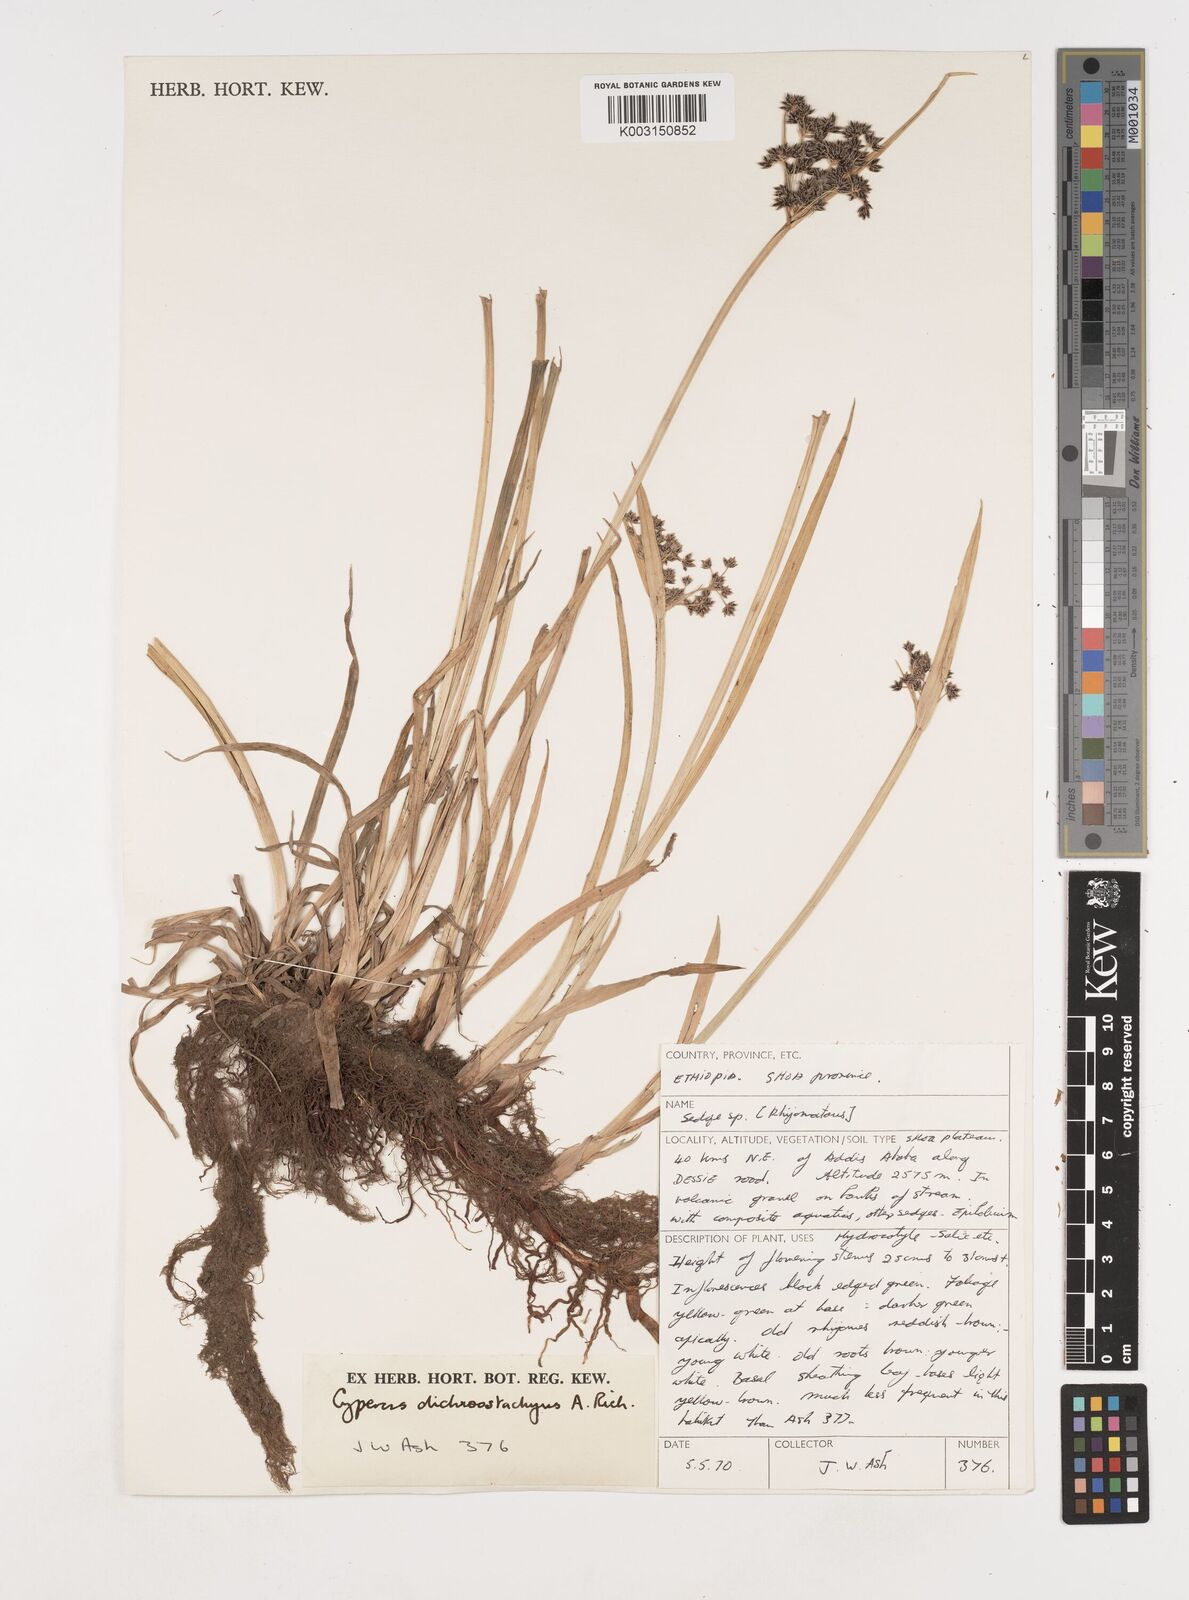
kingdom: Plantae
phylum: Tracheophyta
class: Liliopsida
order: Poales
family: Cyperaceae
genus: Cyperus
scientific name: Cyperus dichrostachyus
